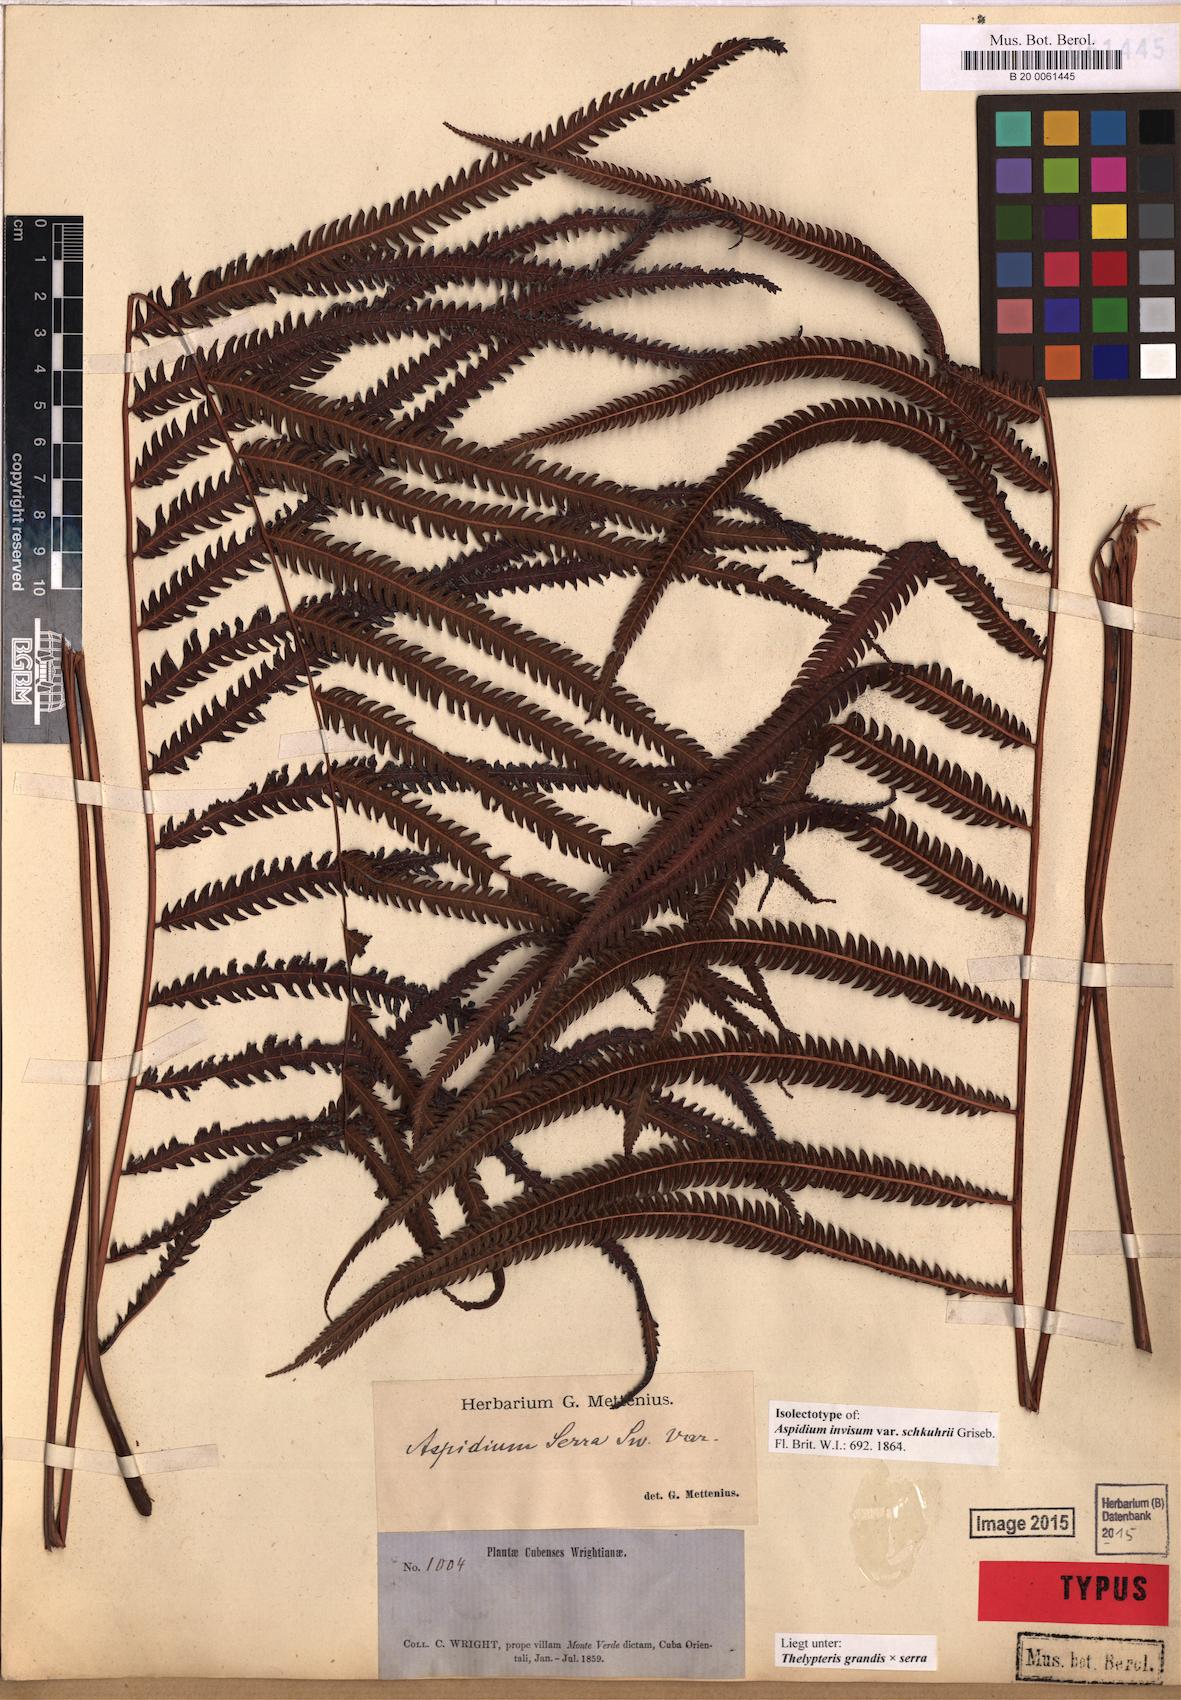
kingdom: Plantae
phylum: Tracheophyta
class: Polypodiopsida
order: Polypodiales
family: Thelypteridaceae
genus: Pelazoneuron
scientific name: Pelazoneuron patens
